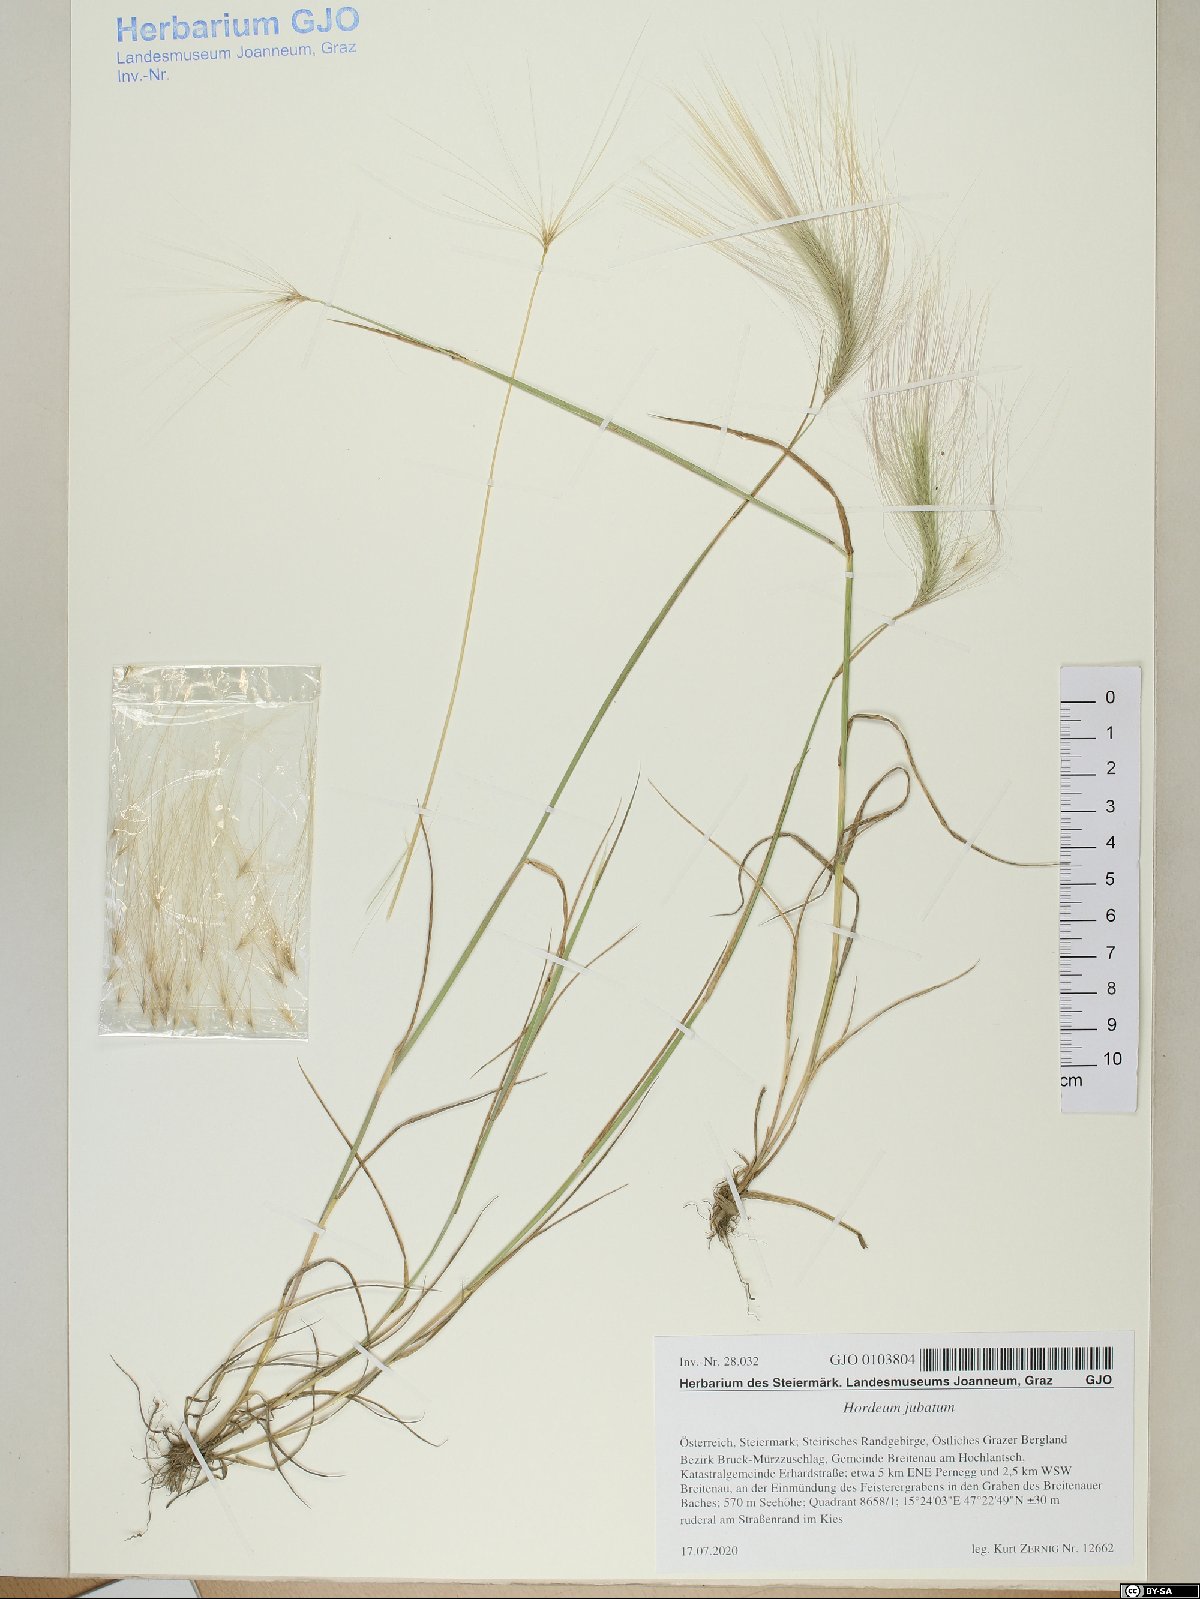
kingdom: Plantae
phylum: Tracheophyta
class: Liliopsida
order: Poales
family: Poaceae
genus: Hordeum
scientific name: Hordeum jubatum
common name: Foxtail barley
